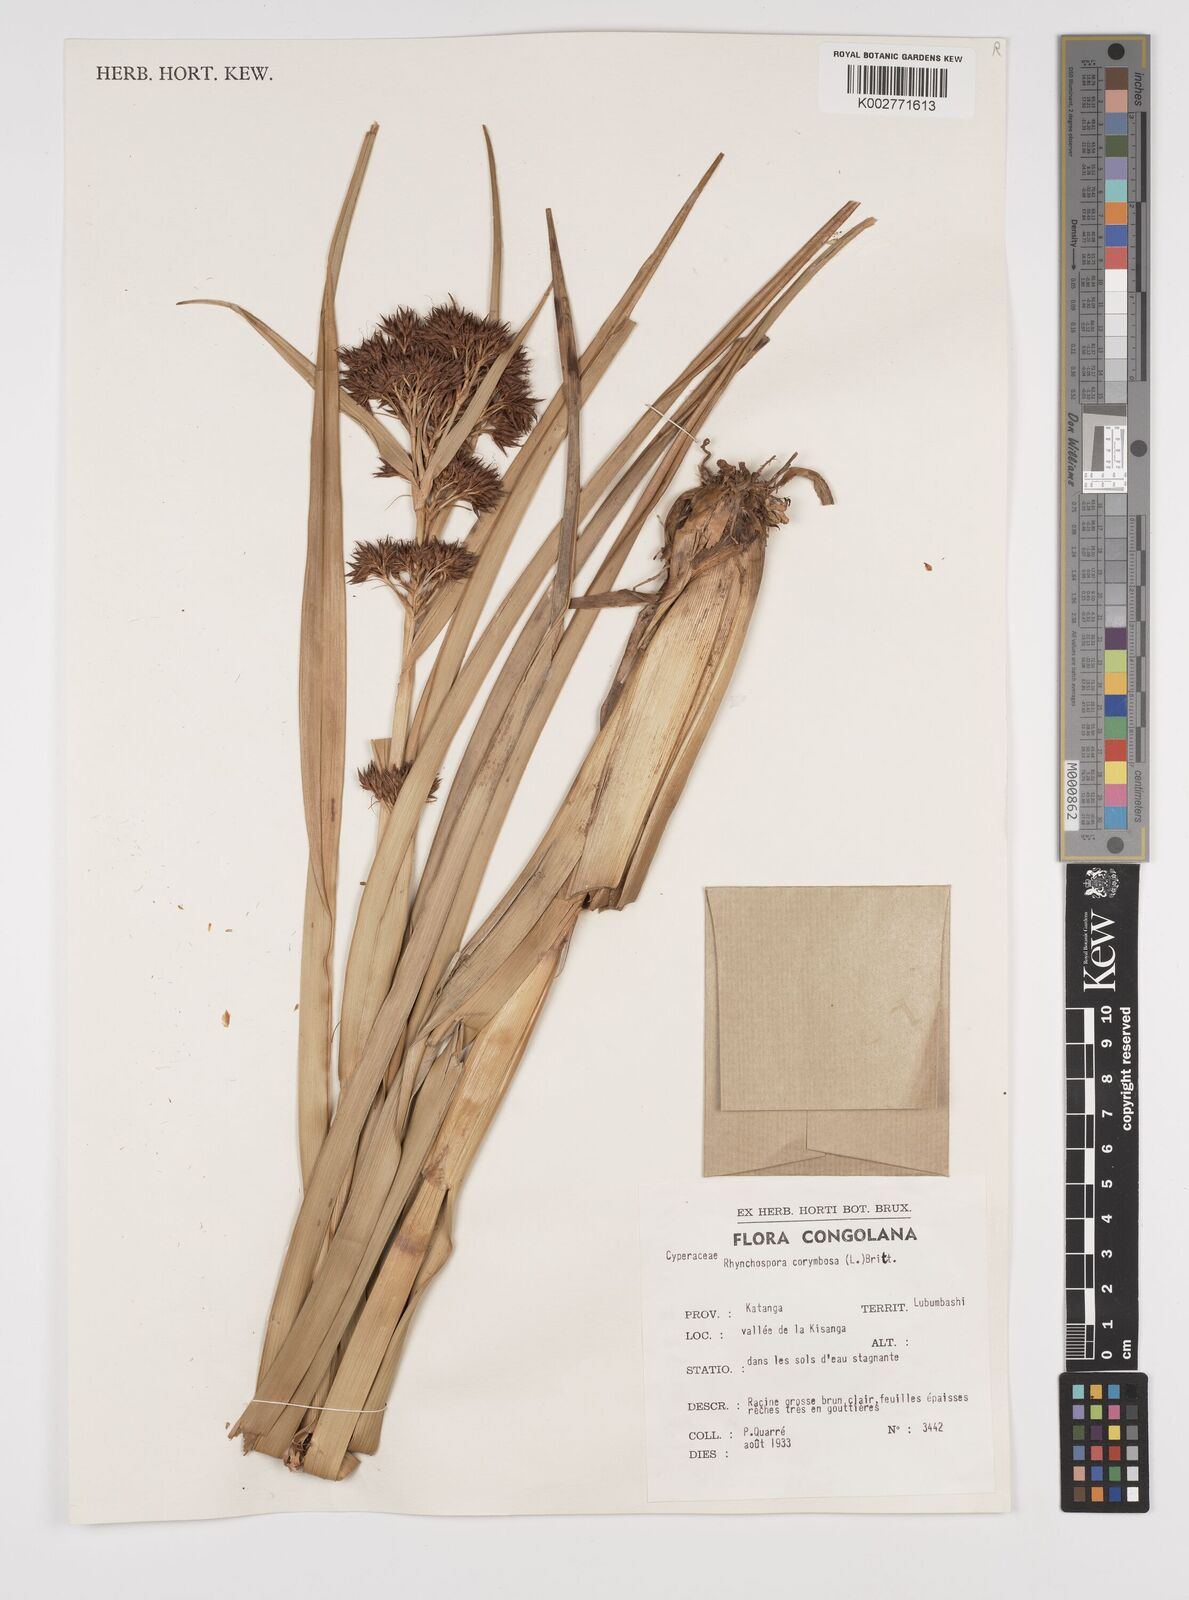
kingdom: Plantae
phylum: Tracheophyta
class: Liliopsida
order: Poales
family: Cyperaceae
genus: Rhynchospora
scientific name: Rhynchospora corymbosa
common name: Golden beak sedge
